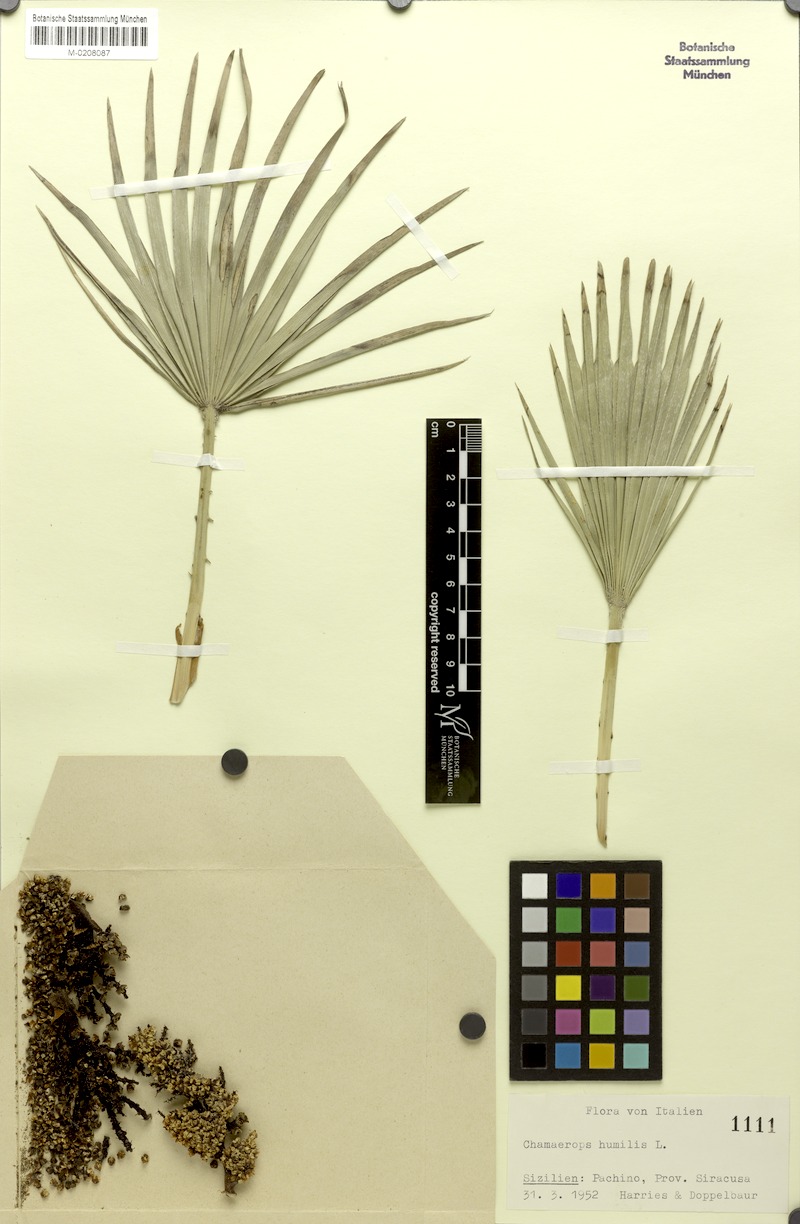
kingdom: Plantae
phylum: Tracheophyta
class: Liliopsida
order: Arecales
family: Arecaceae
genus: Chamaerops
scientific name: Chamaerops humilis
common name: Dwarf fan palm
